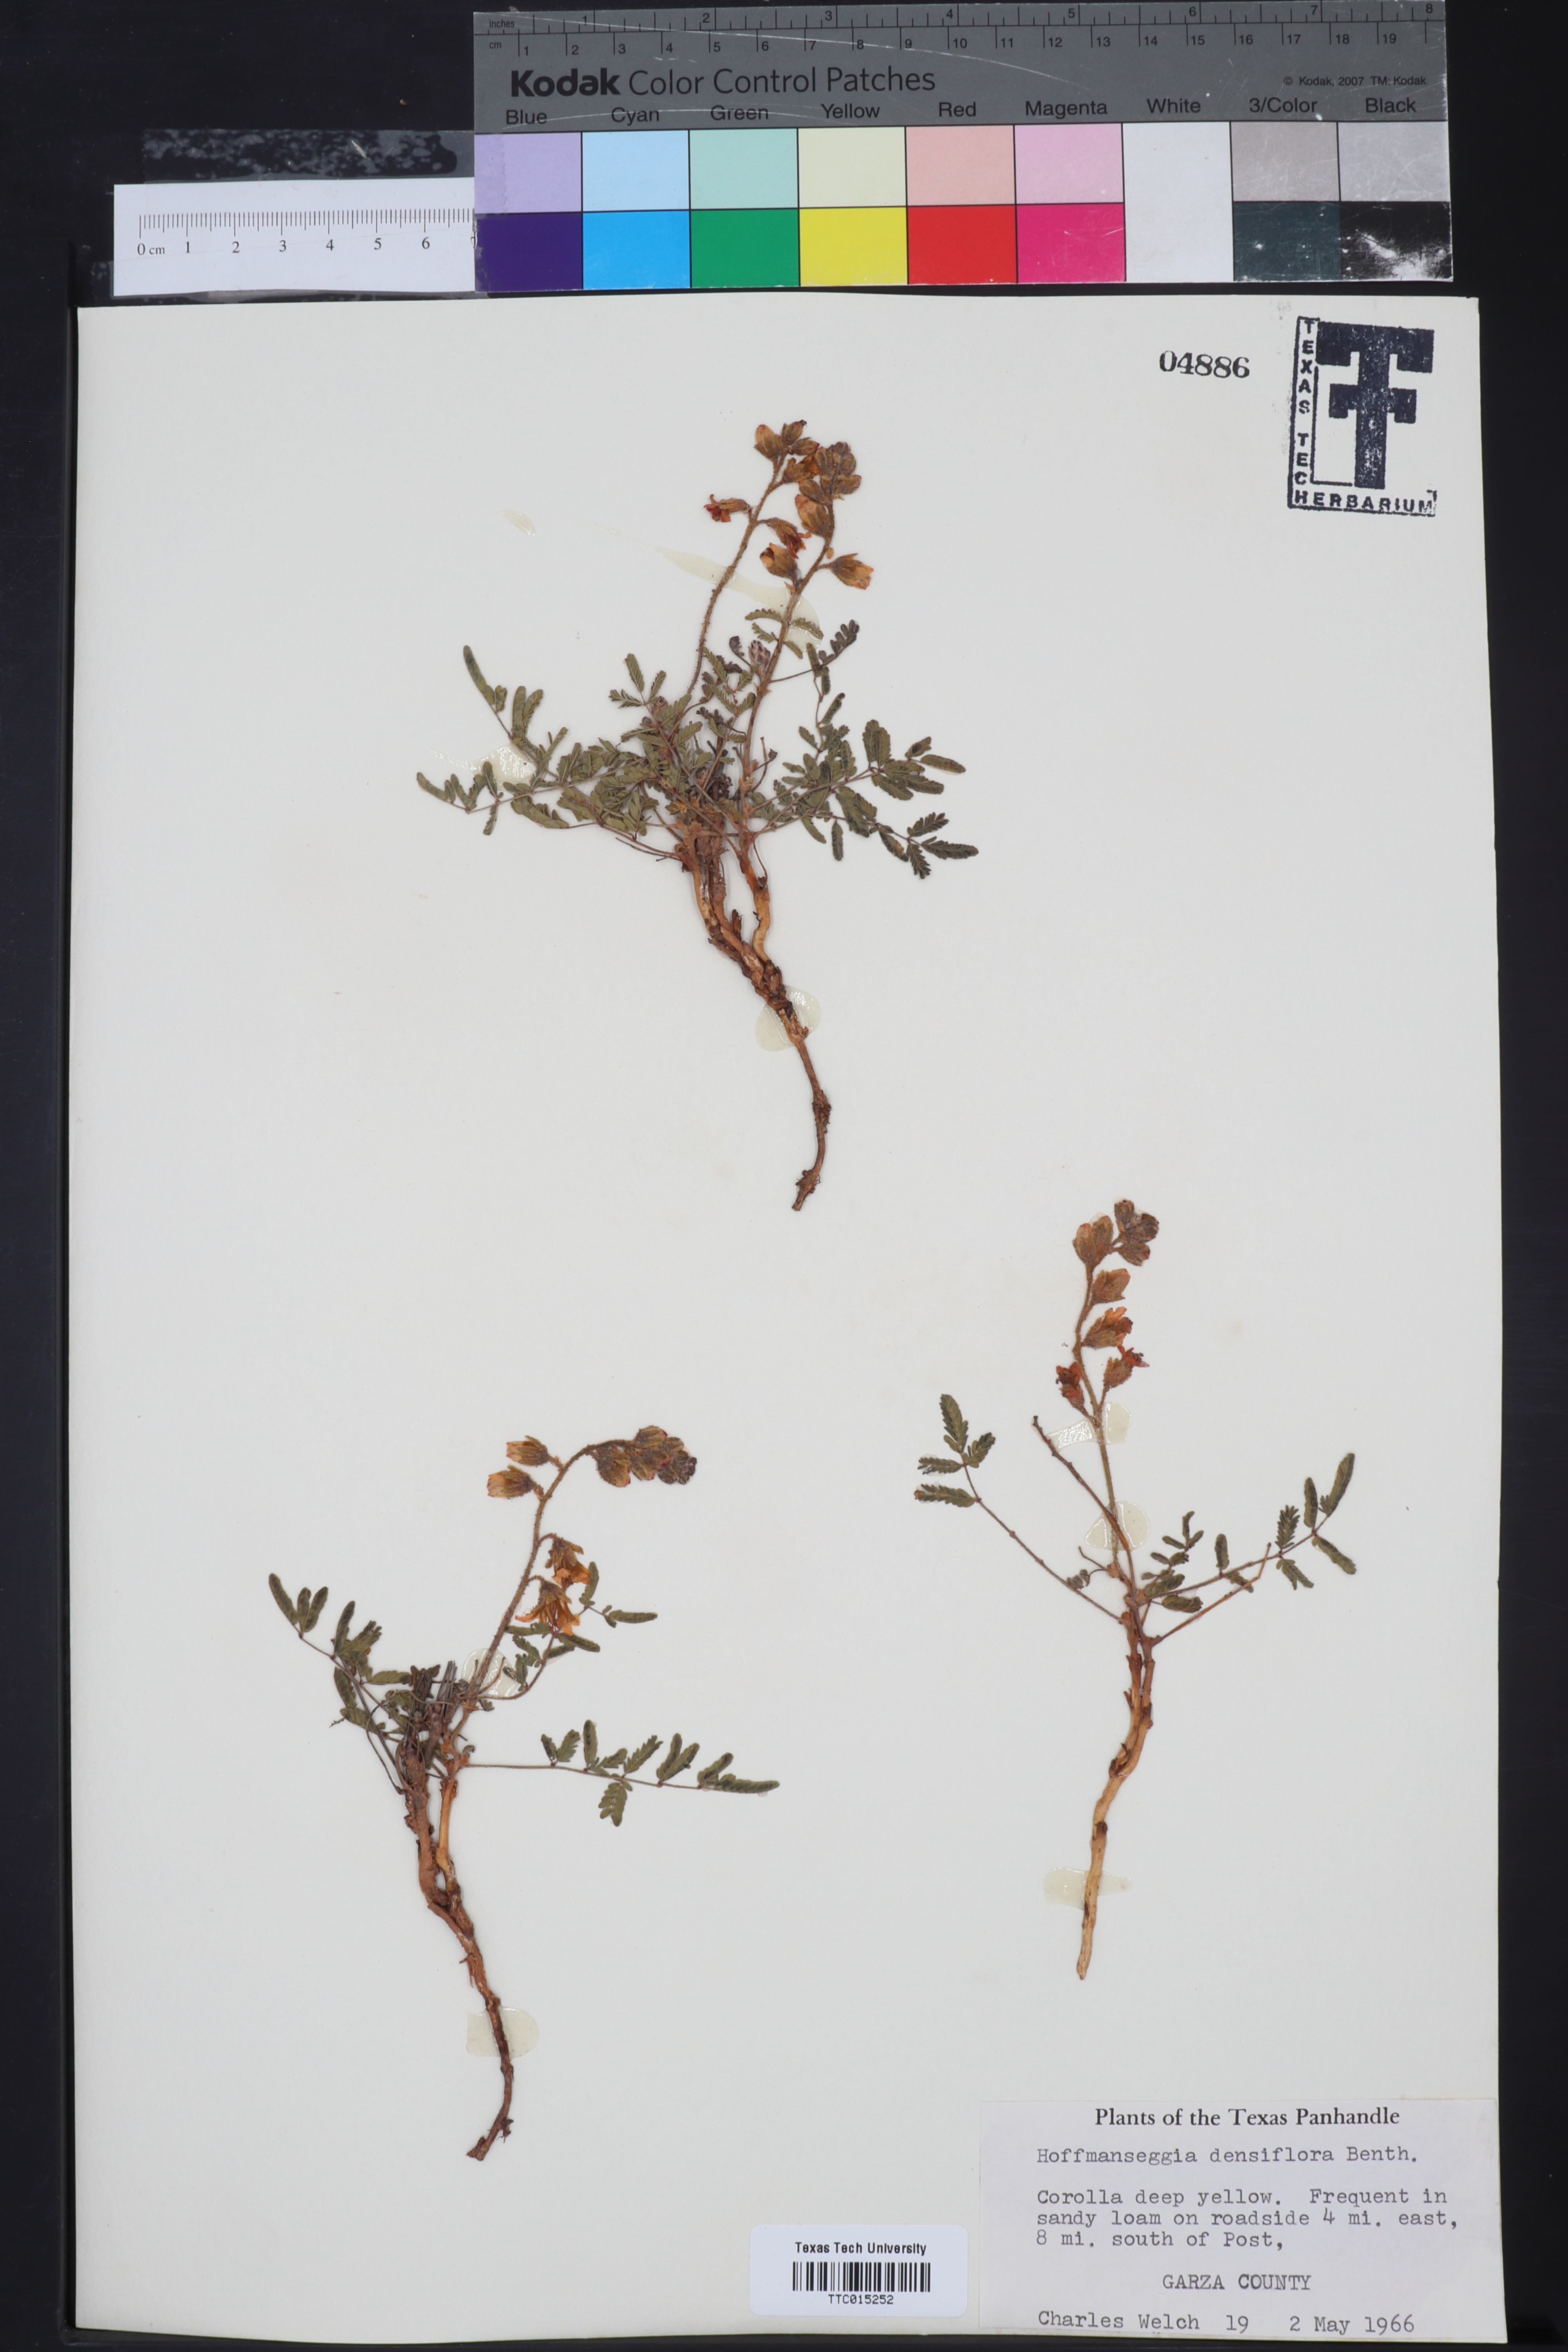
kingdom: Plantae
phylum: Tracheophyta
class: Magnoliopsida
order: Fabales
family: Fabaceae
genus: Hoffmannseggia
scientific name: Hoffmannseggia glauca
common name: Pignut
